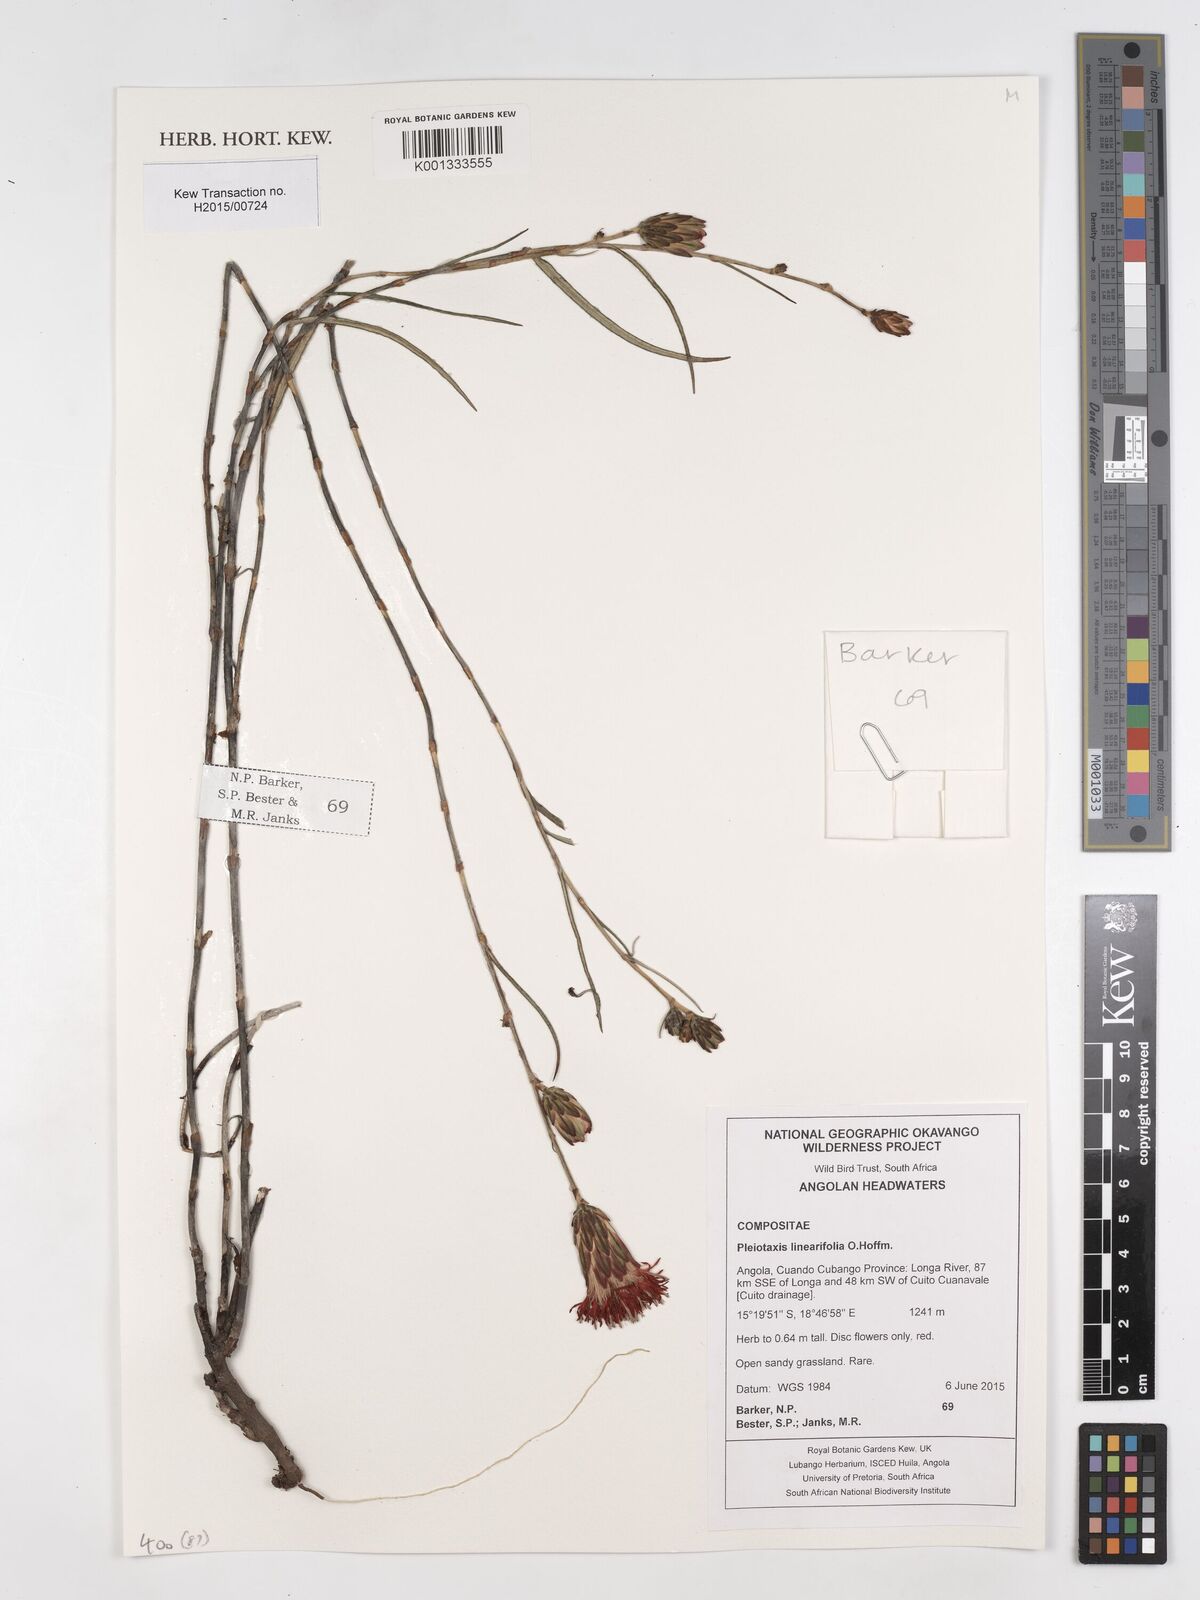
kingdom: Plantae
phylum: Tracheophyta
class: Magnoliopsida
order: Asterales
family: Asteraceae
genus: Pleiotaxis
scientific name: Pleiotaxis linearifolia
